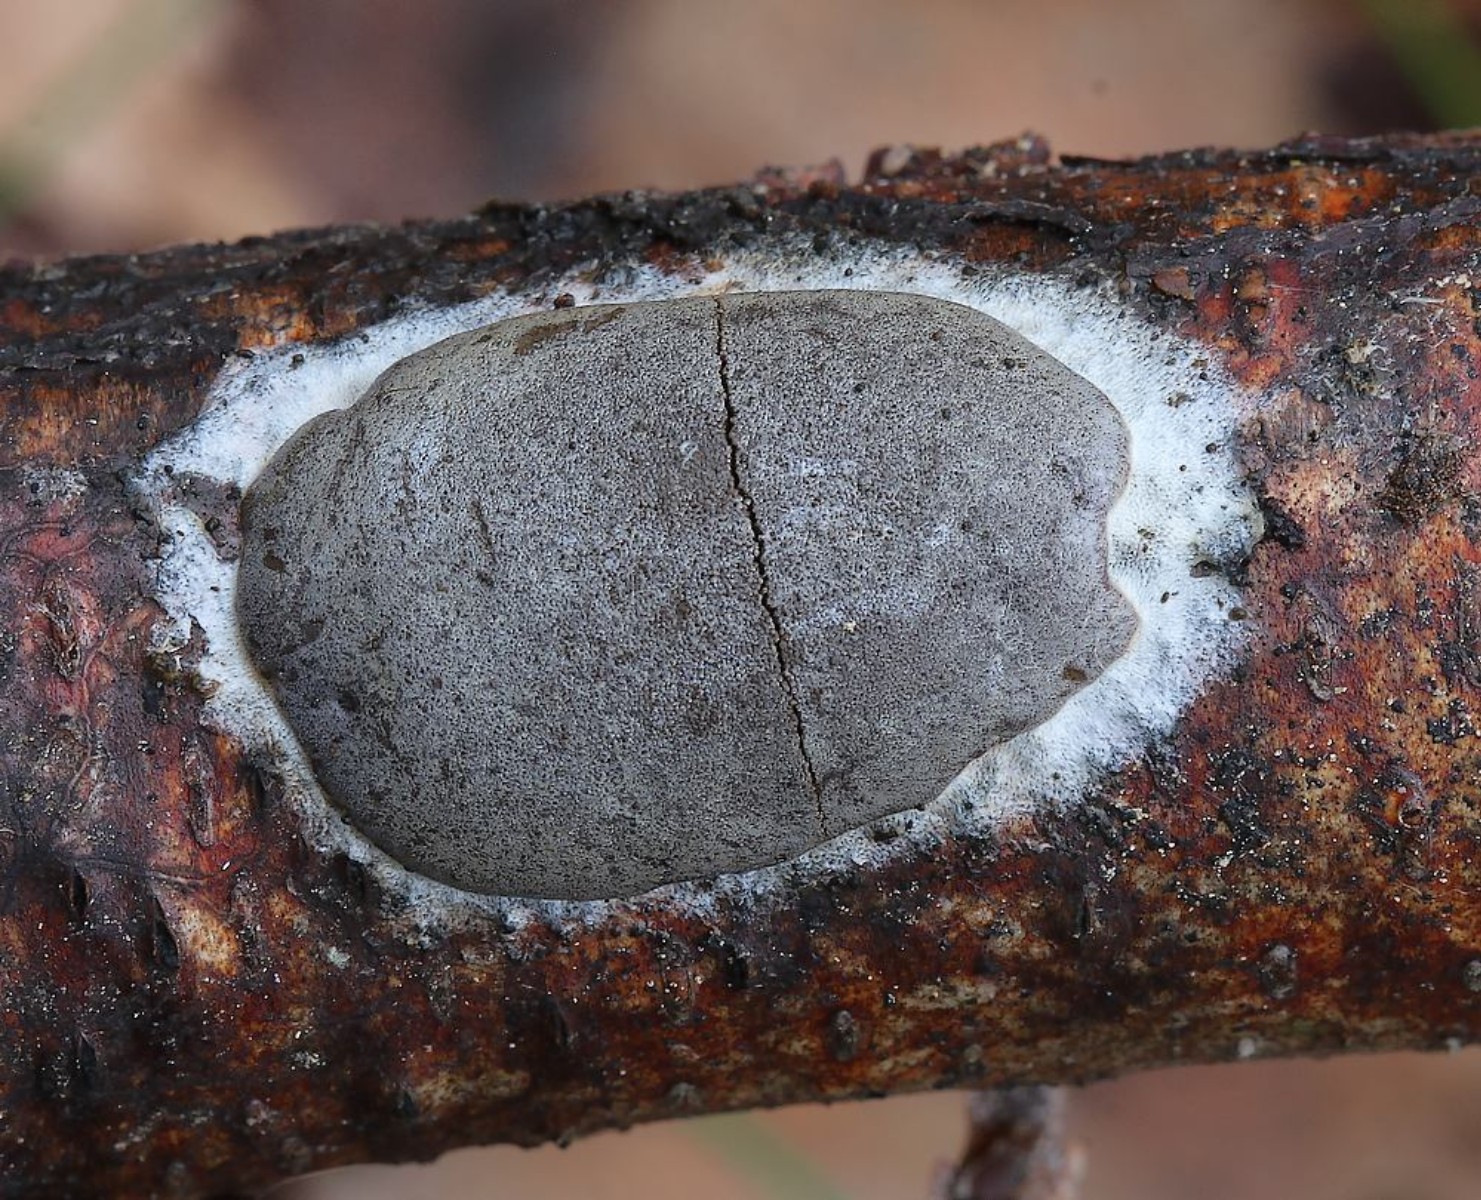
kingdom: Protozoa
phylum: Mycetozoa
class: Myxomycetes
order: Trichiales
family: Dictydiaethaliaceae
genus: Dictydiaethalium
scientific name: Dictydiaethalium plumbeum
